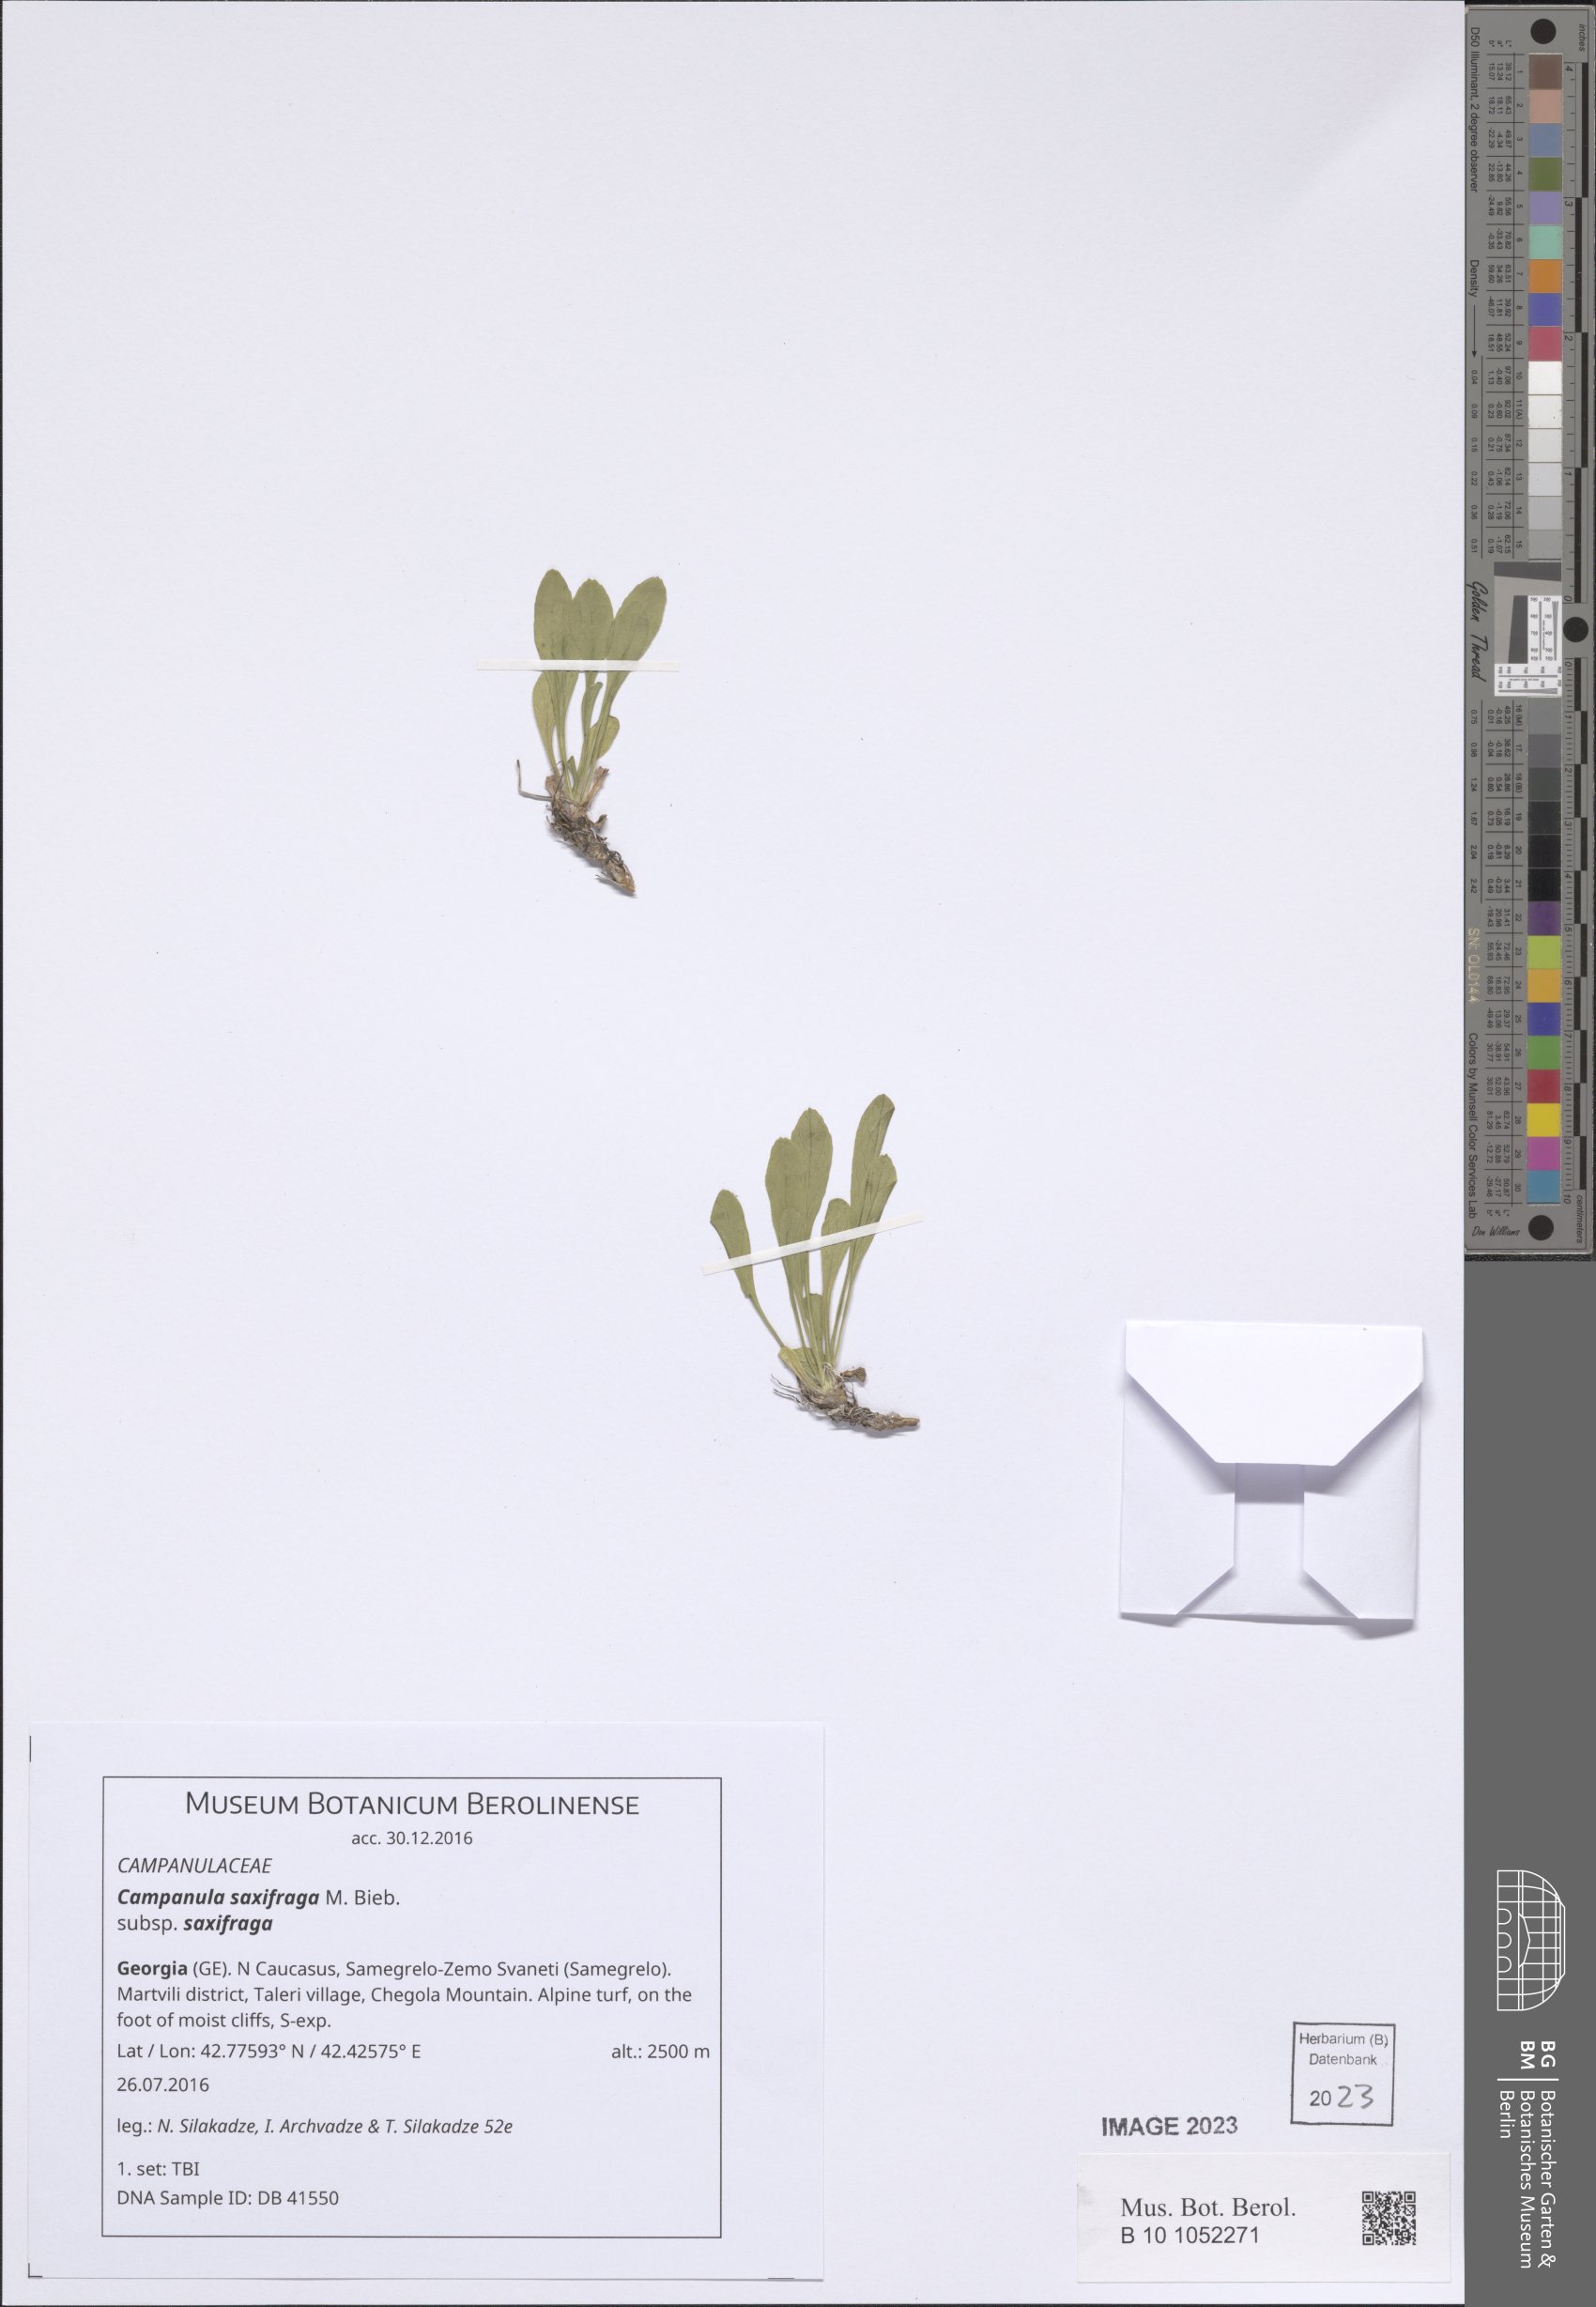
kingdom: Plantae
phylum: Tracheophyta
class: Magnoliopsida
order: Asterales
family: Campanulaceae
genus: Campanula
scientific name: Campanula saxifraga
